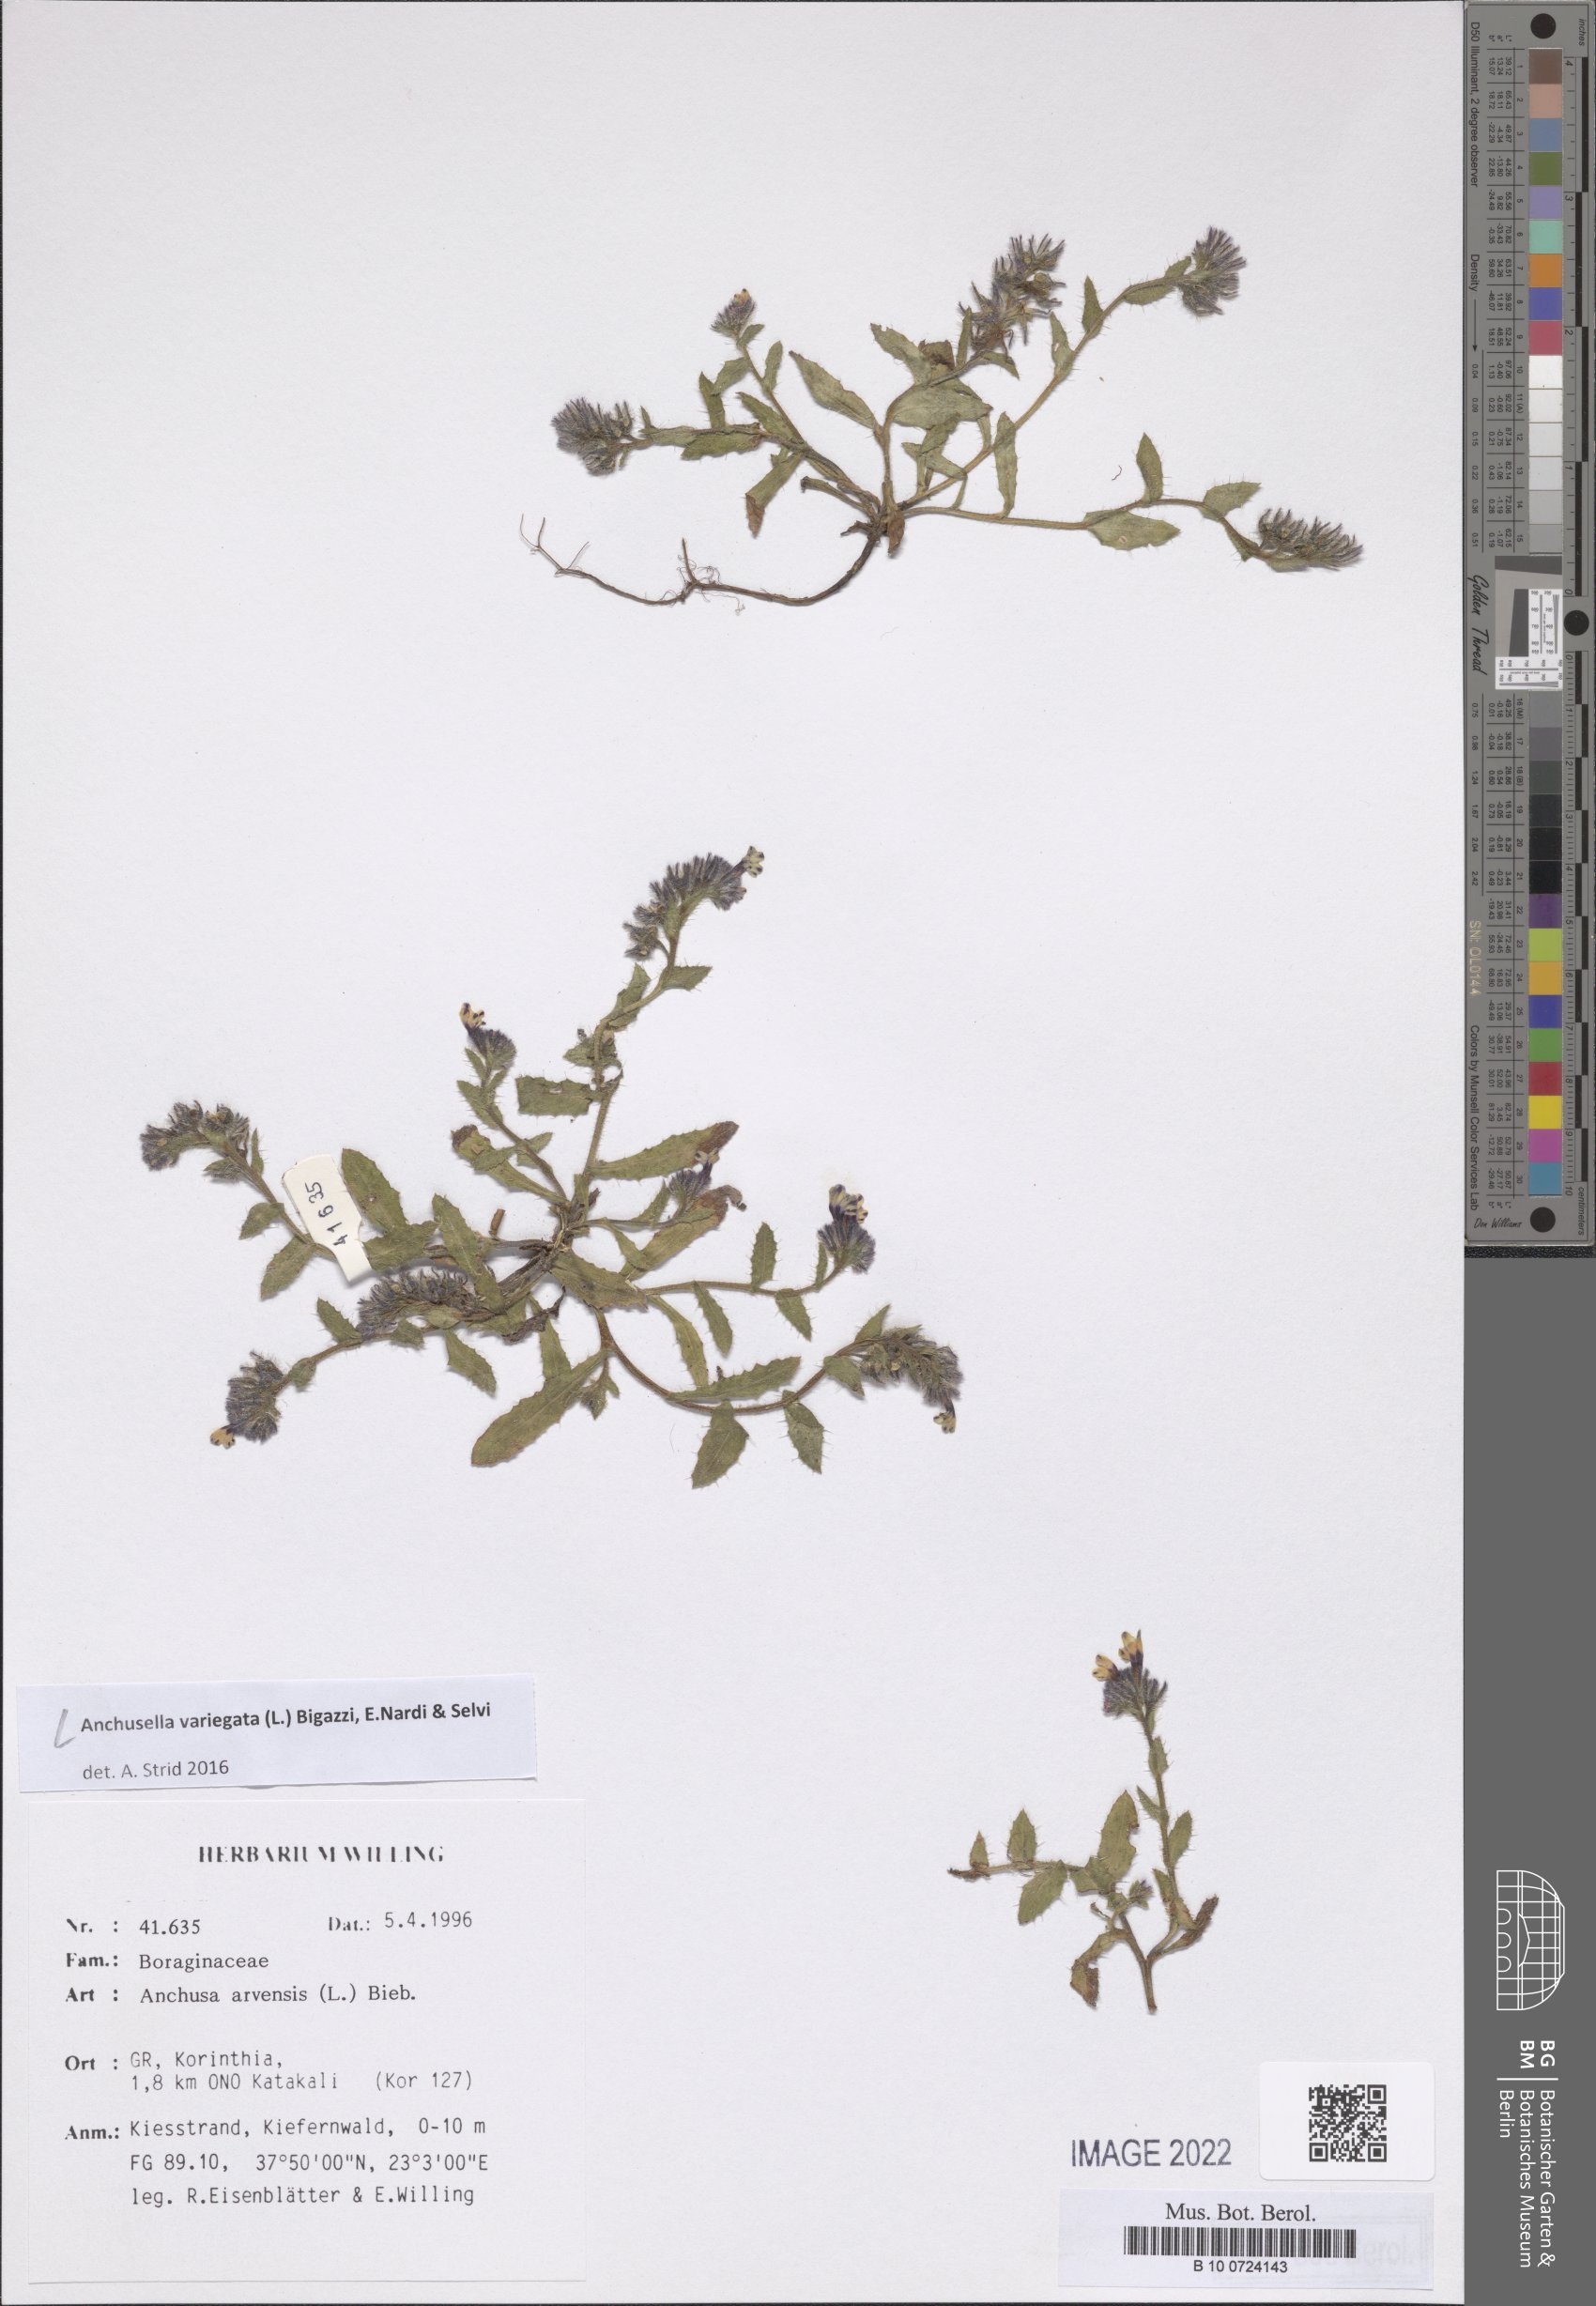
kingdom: Plantae
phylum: Tracheophyta
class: Magnoliopsida
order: Boraginales
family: Boraginaceae
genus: Anchusella
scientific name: Anchusella variegata
